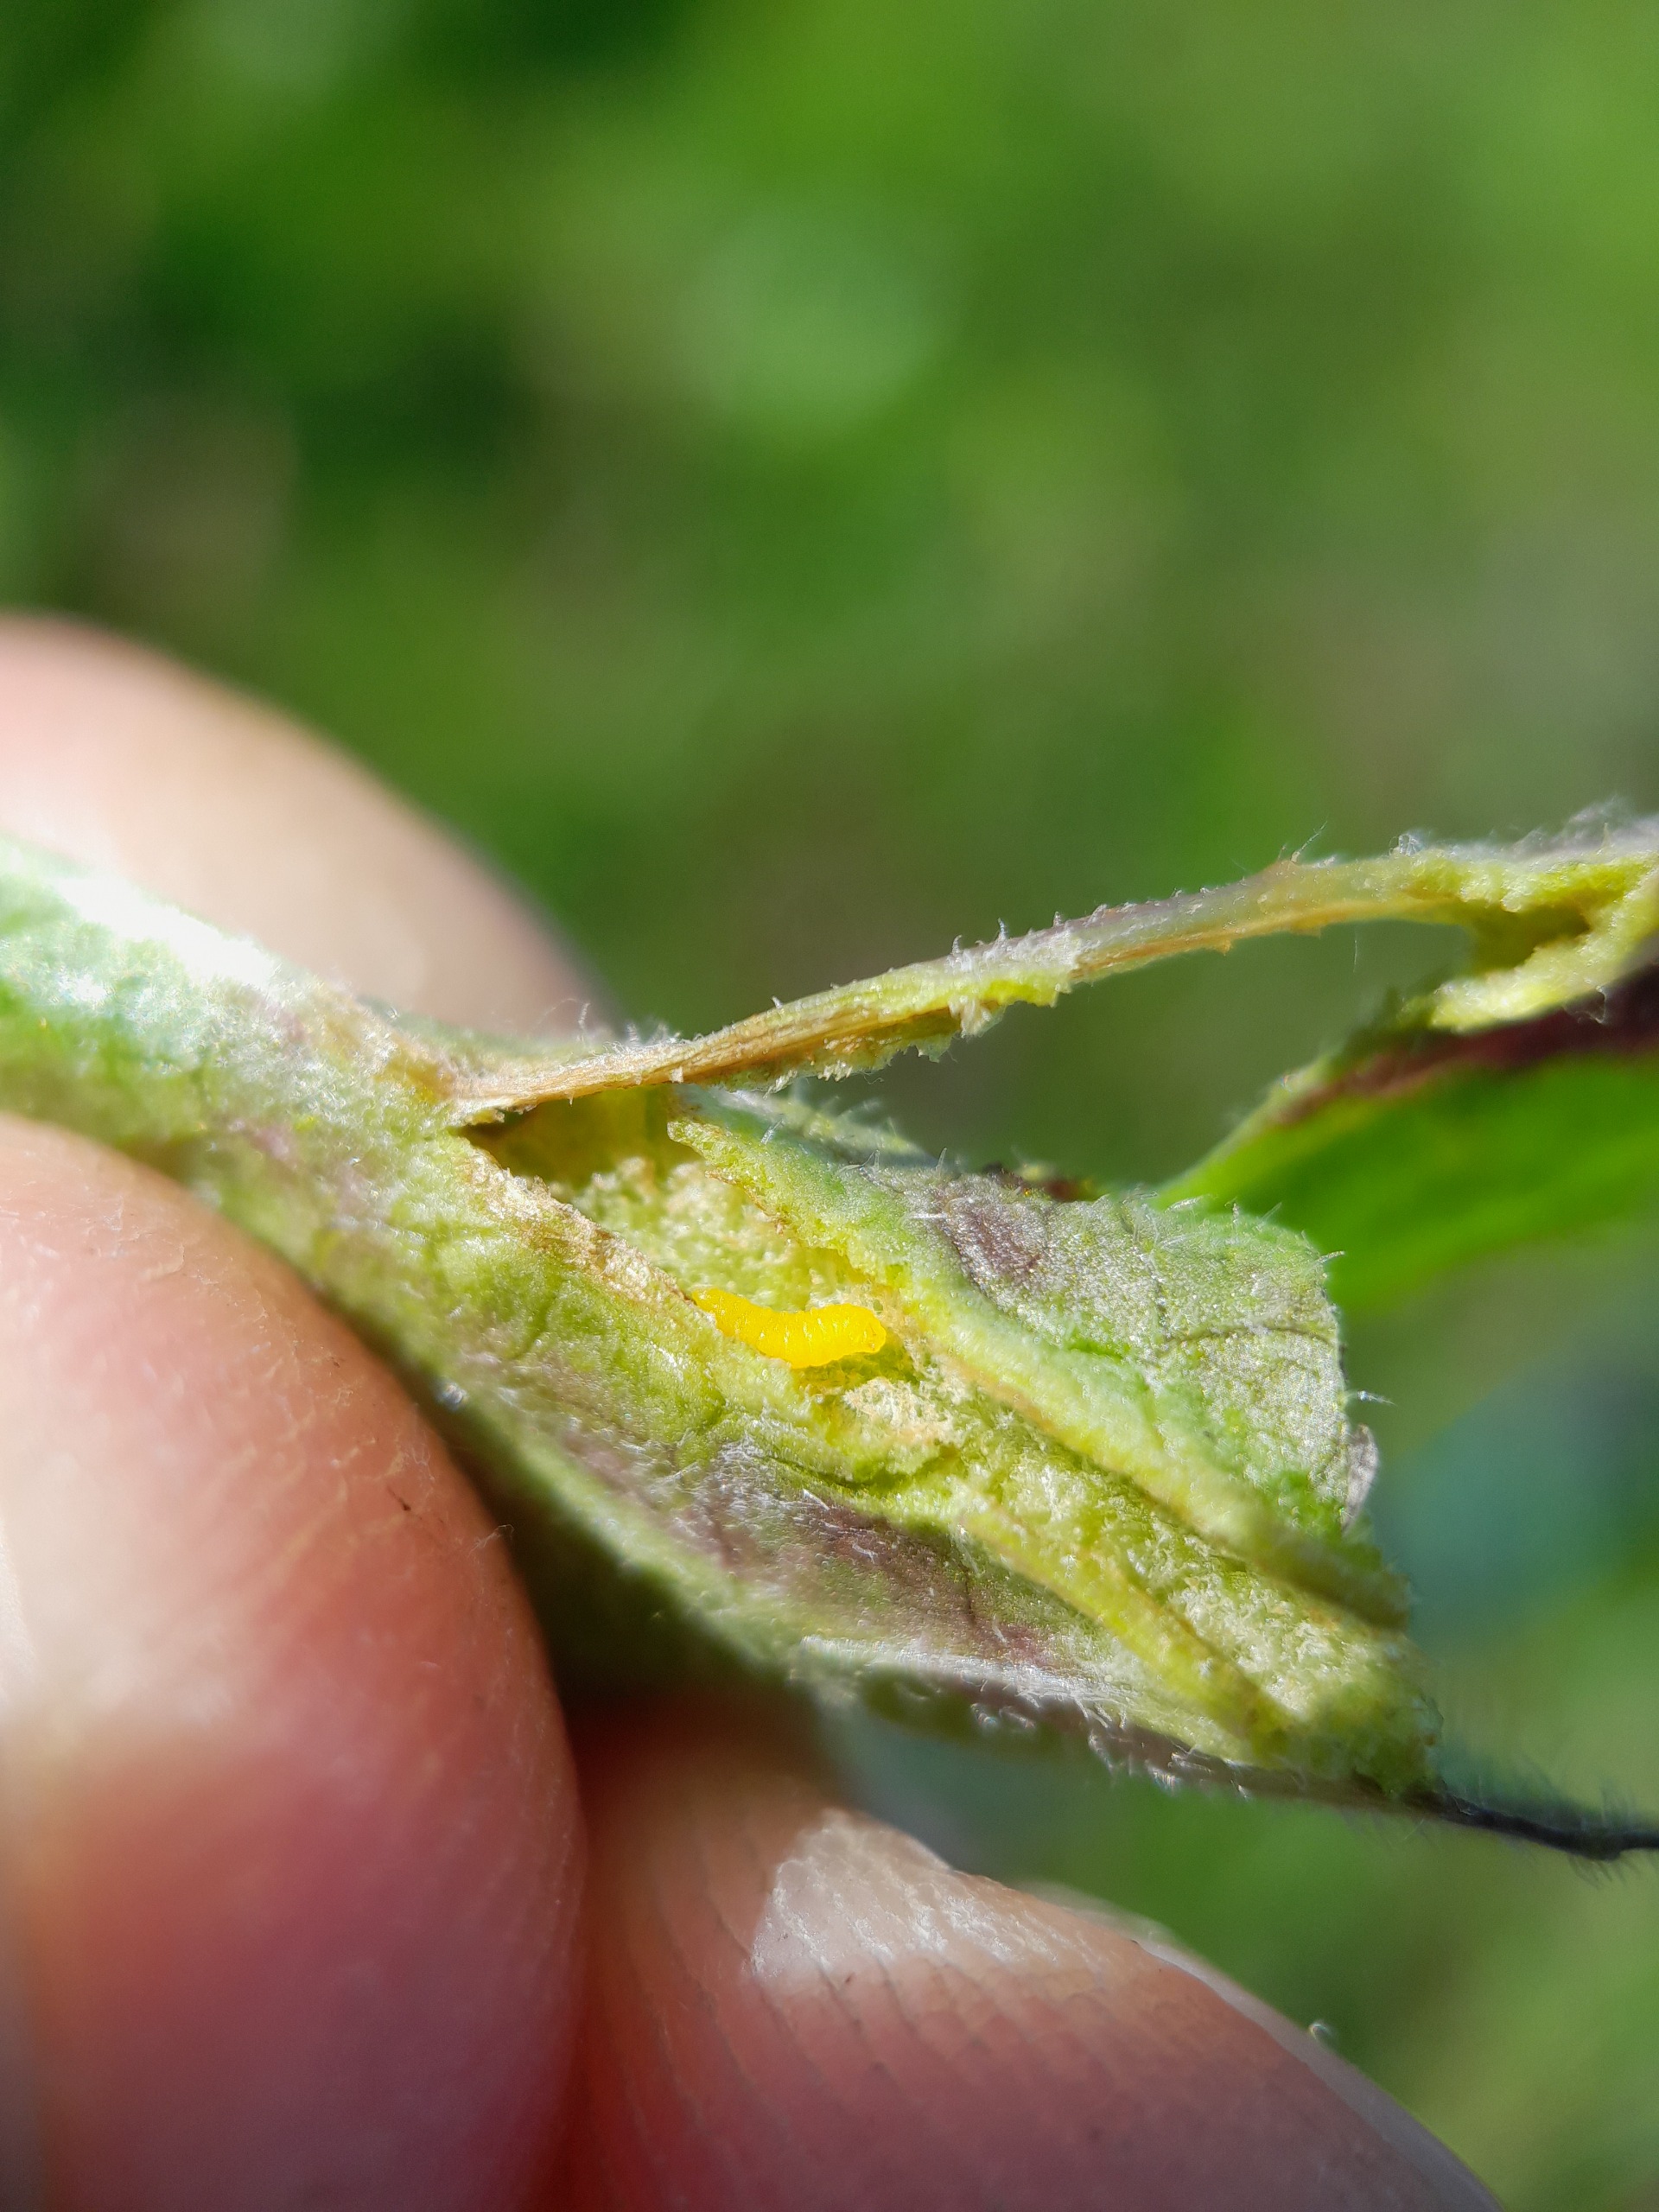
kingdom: Animalia
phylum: Arthropoda
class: Insecta
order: Diptera
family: Cecidomyiidae
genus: Loewiola
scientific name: Loewiola centaureae
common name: Knopurtblæregalmyg
